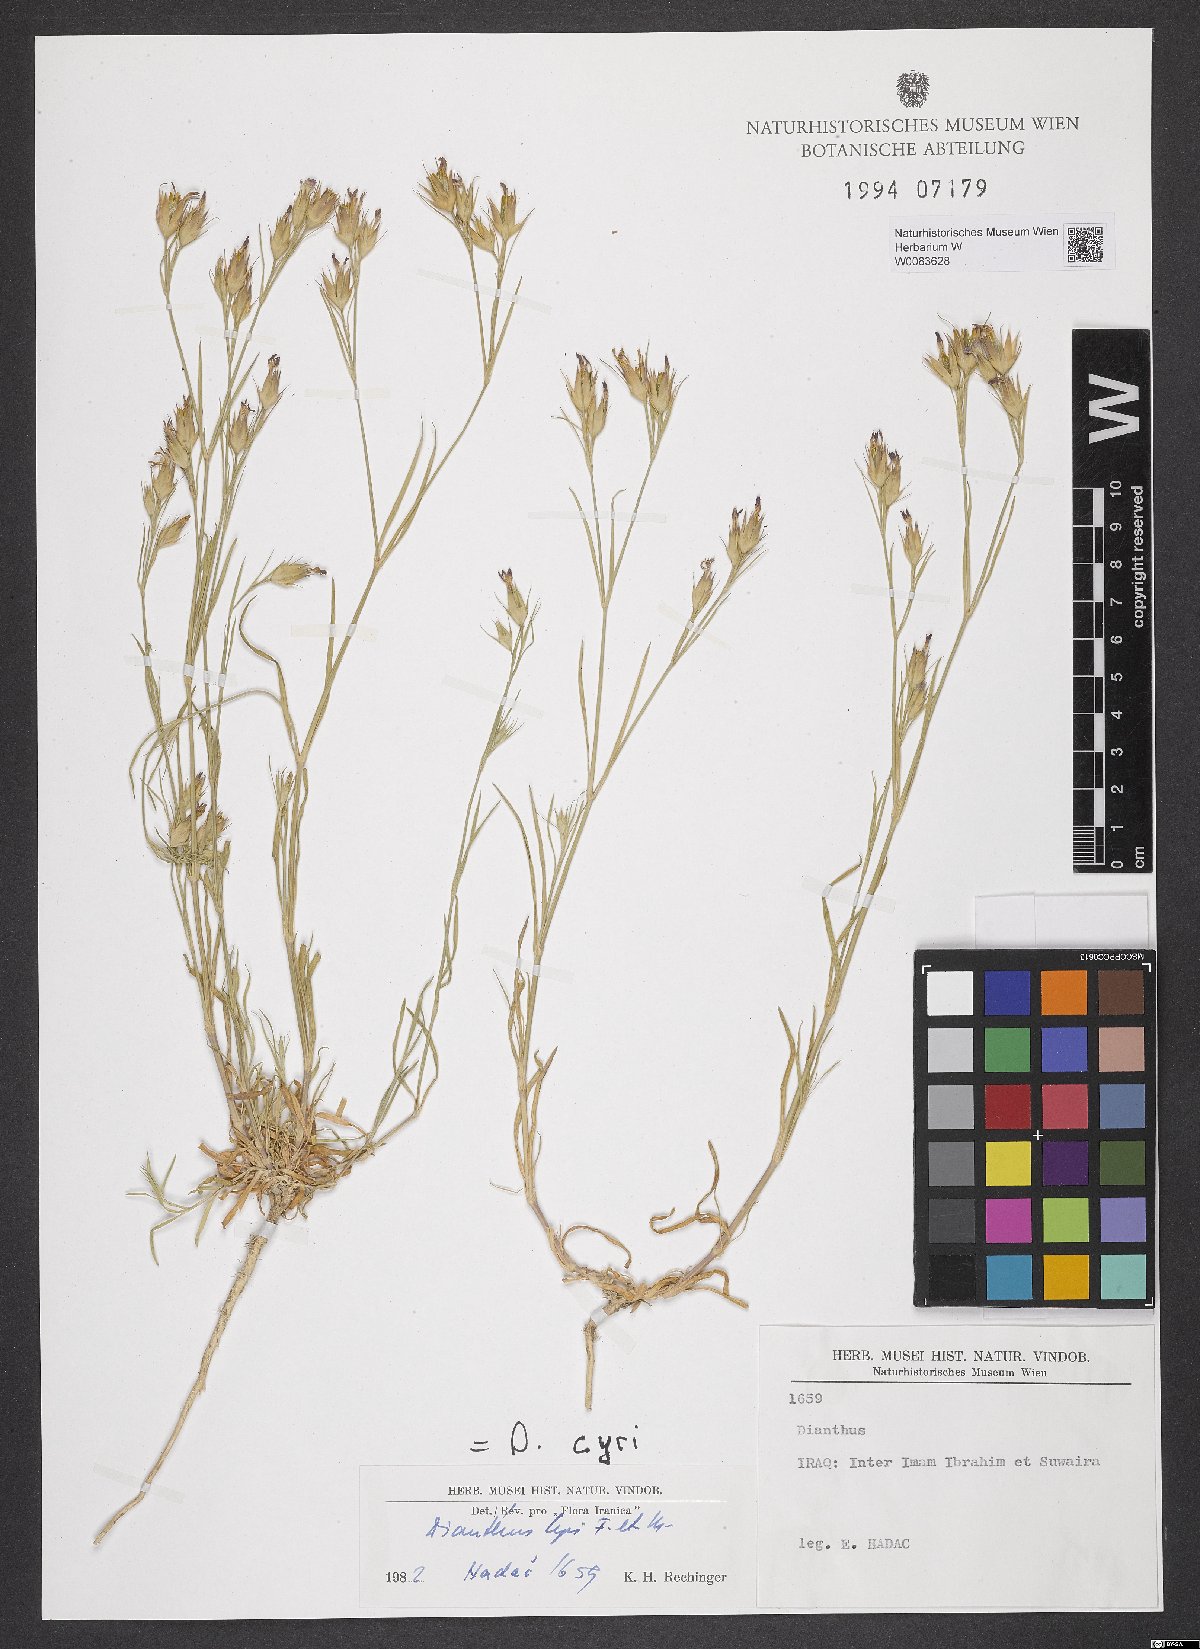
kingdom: Plantae
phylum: Tracheophyta
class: Magnoliopsida
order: Caryophyllales
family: Caryophyllaceae
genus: Dianthus
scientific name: Dianthus cyri
